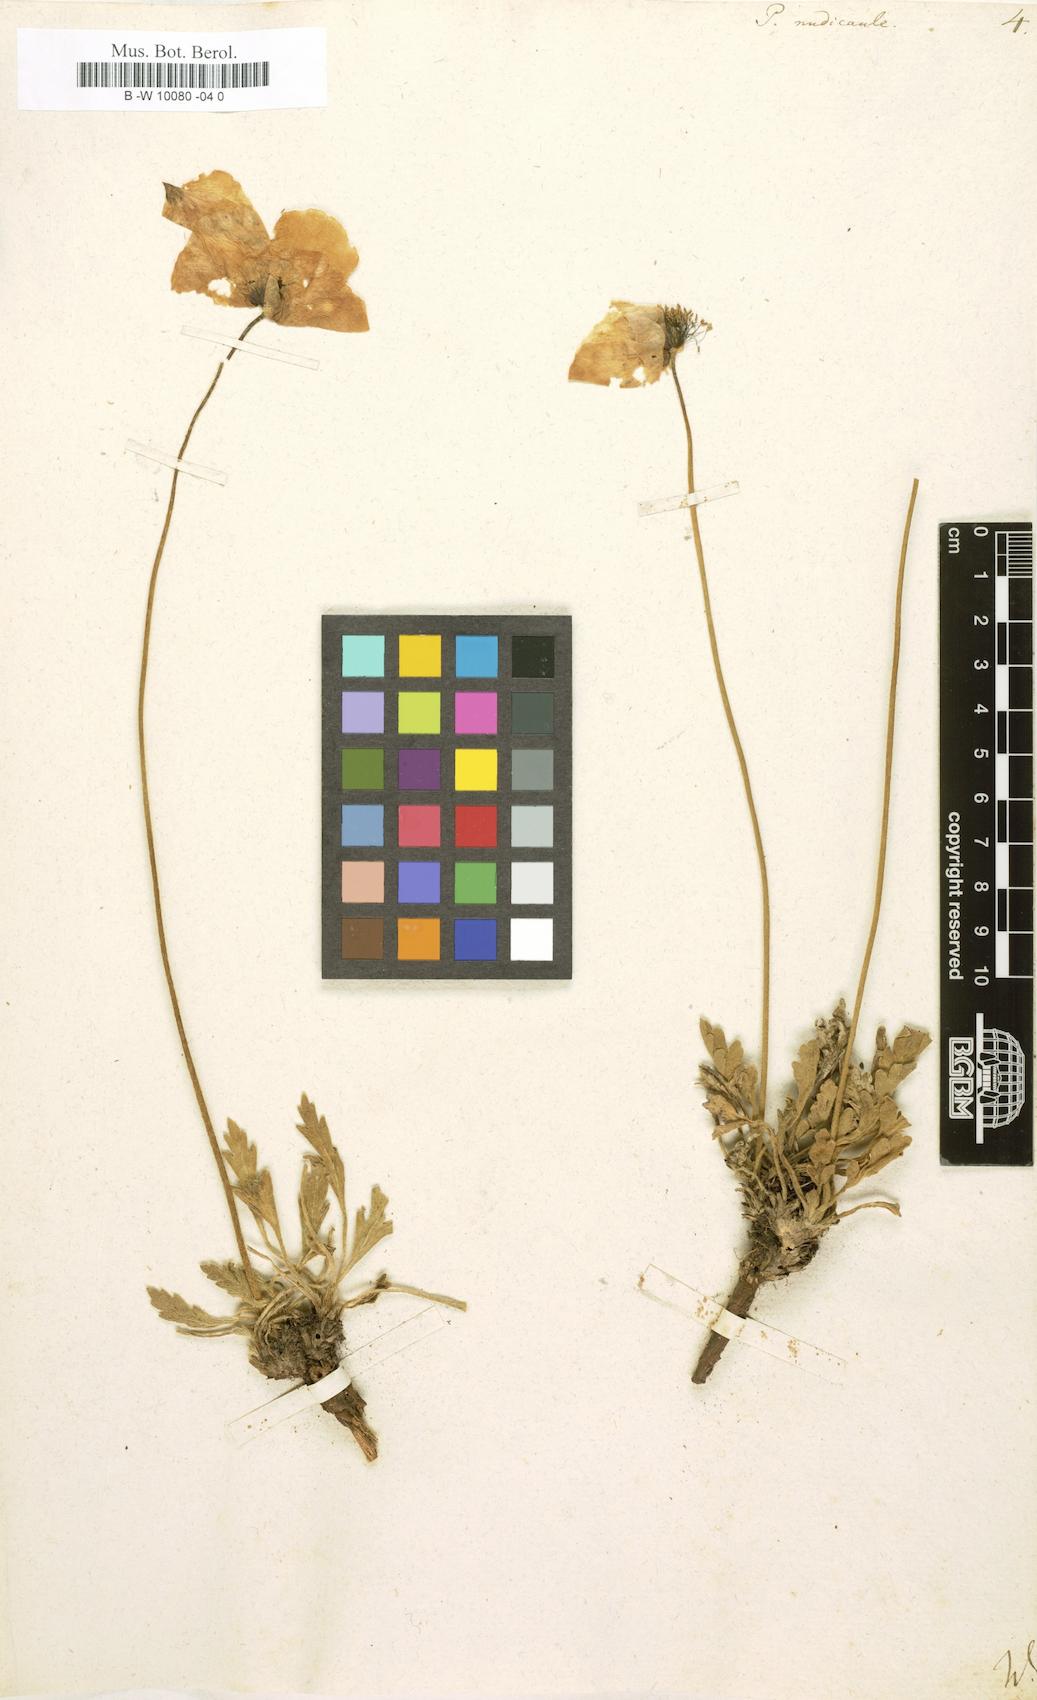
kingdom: Plantae
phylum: Tracheophyta
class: Magnoliopsida
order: Ranunculales
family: Papaveraceae
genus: Papaver
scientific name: Papaver nudicaule
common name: Arctic poppy
